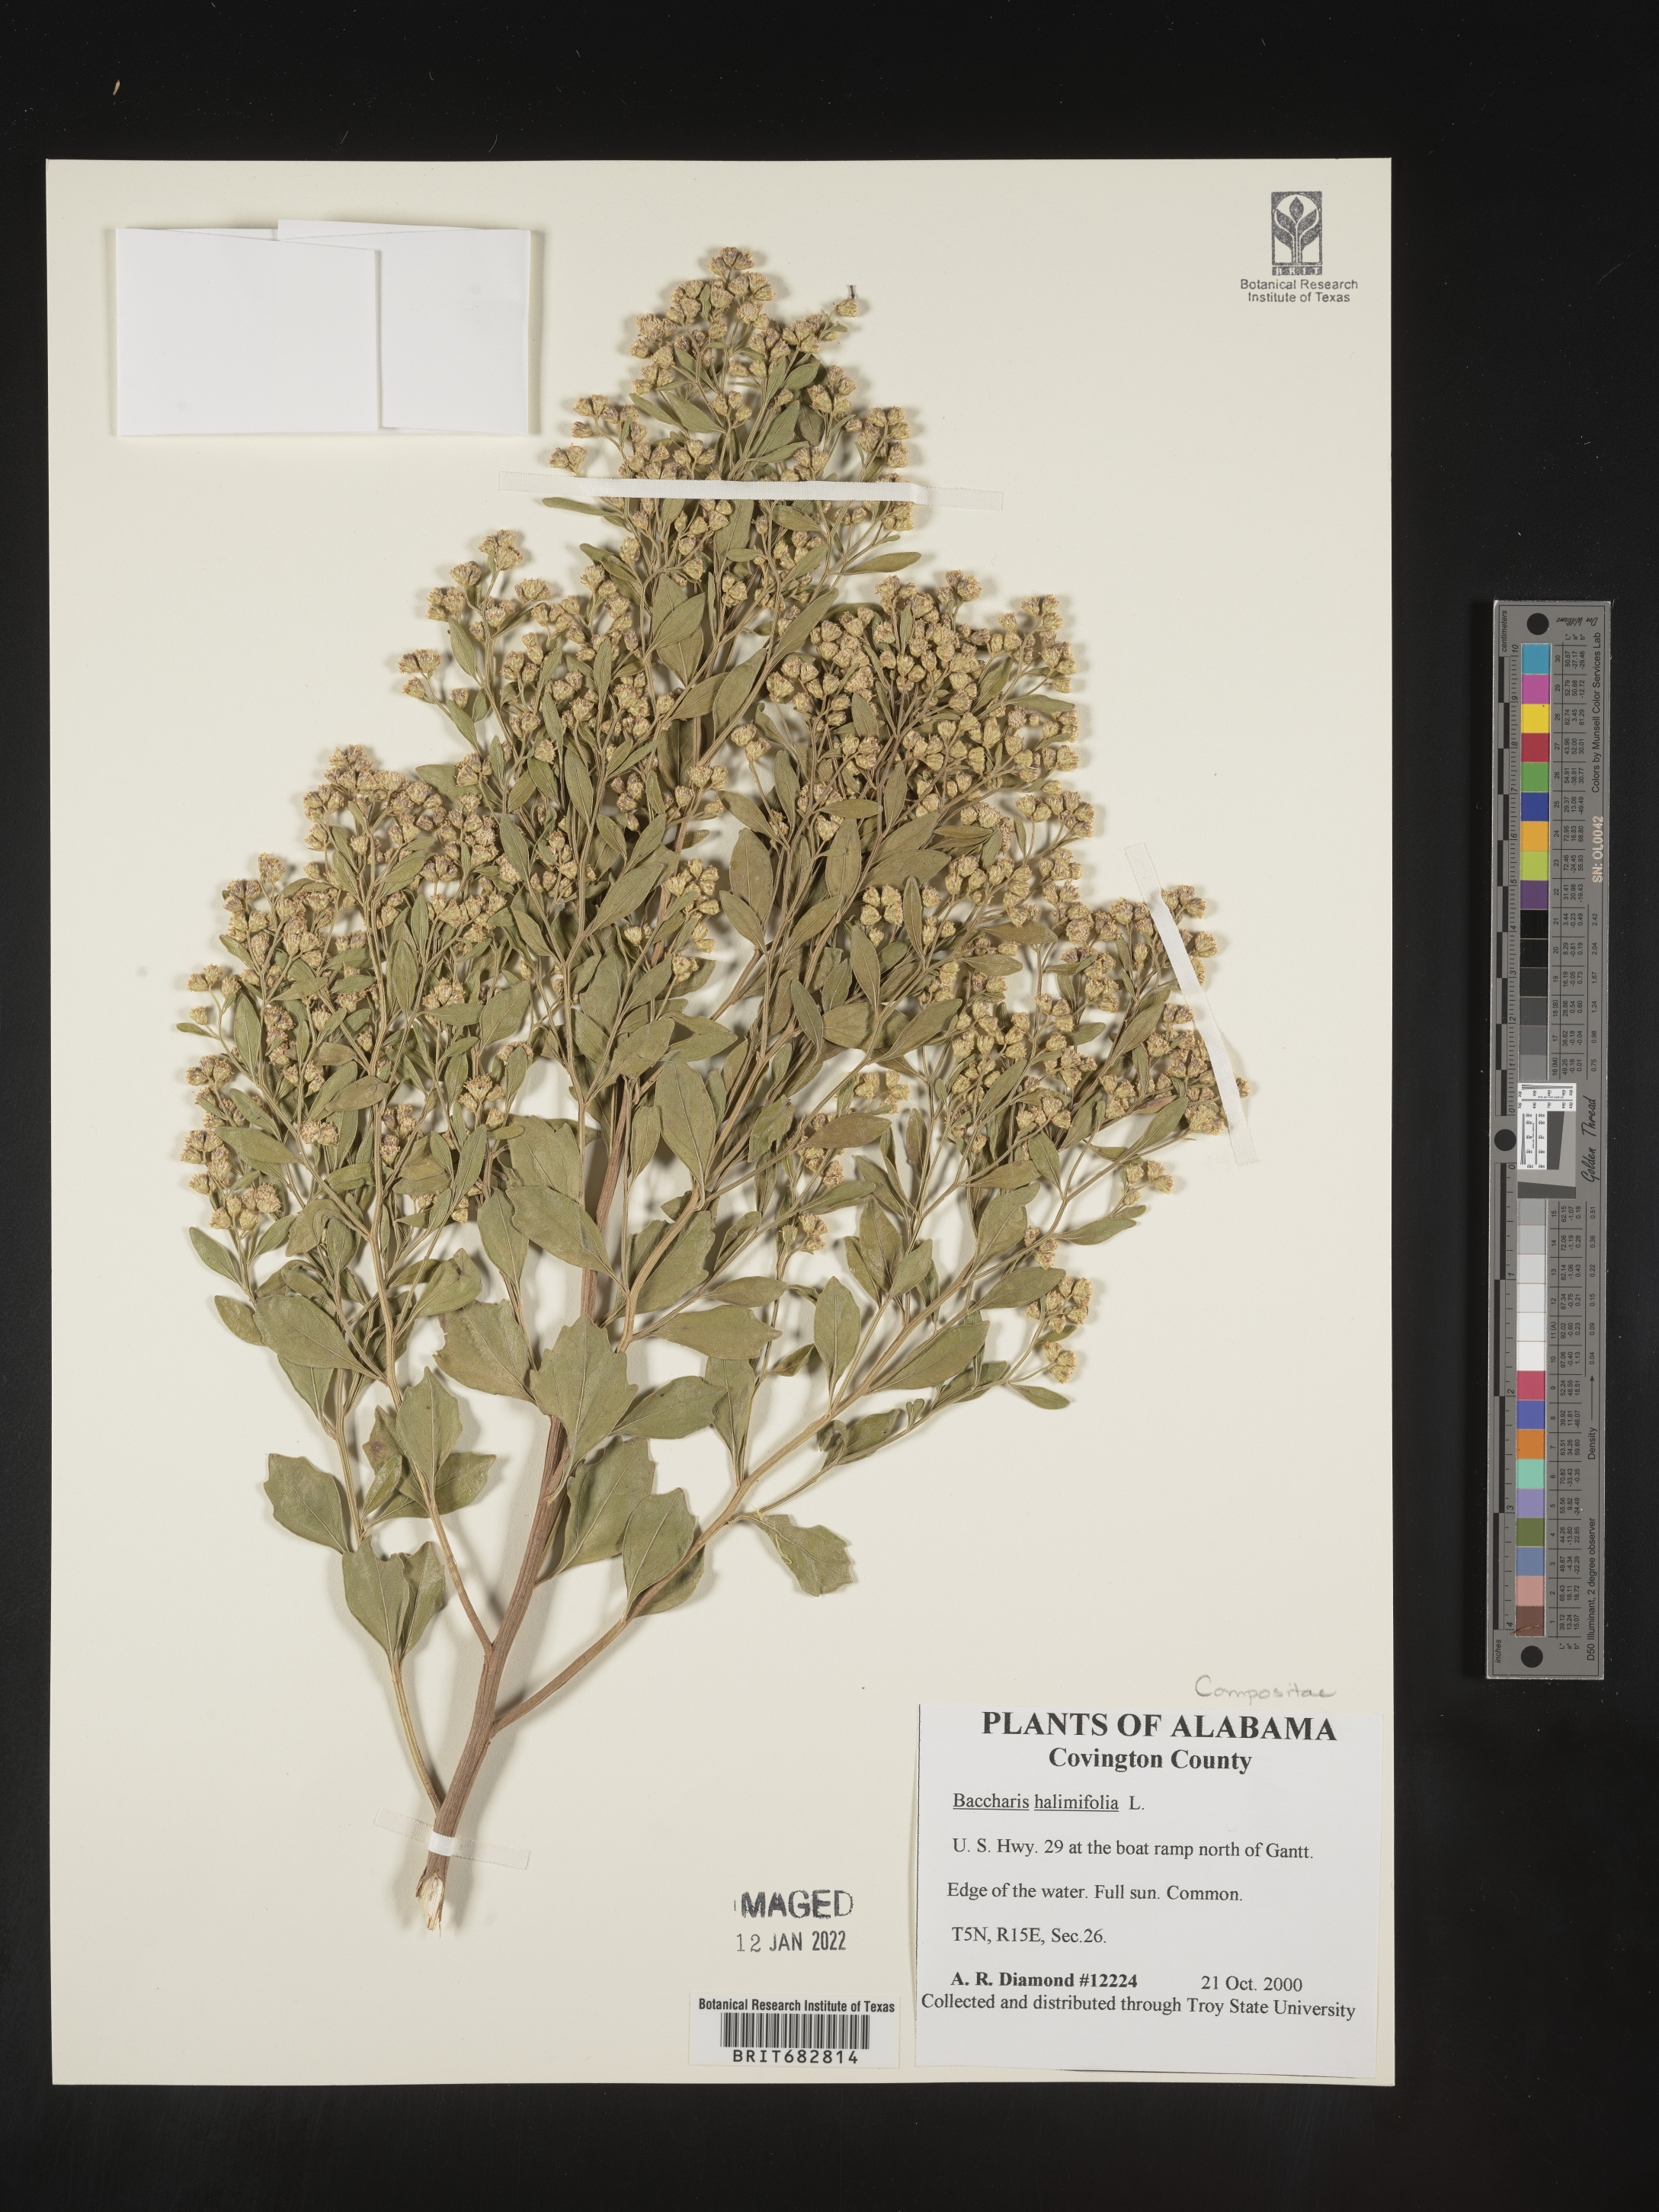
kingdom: Plantae
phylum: Tracheophyta
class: Magnoliopsida
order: Asterales
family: Asteraceae
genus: Nidorella
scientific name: Nidorella ivifolia
